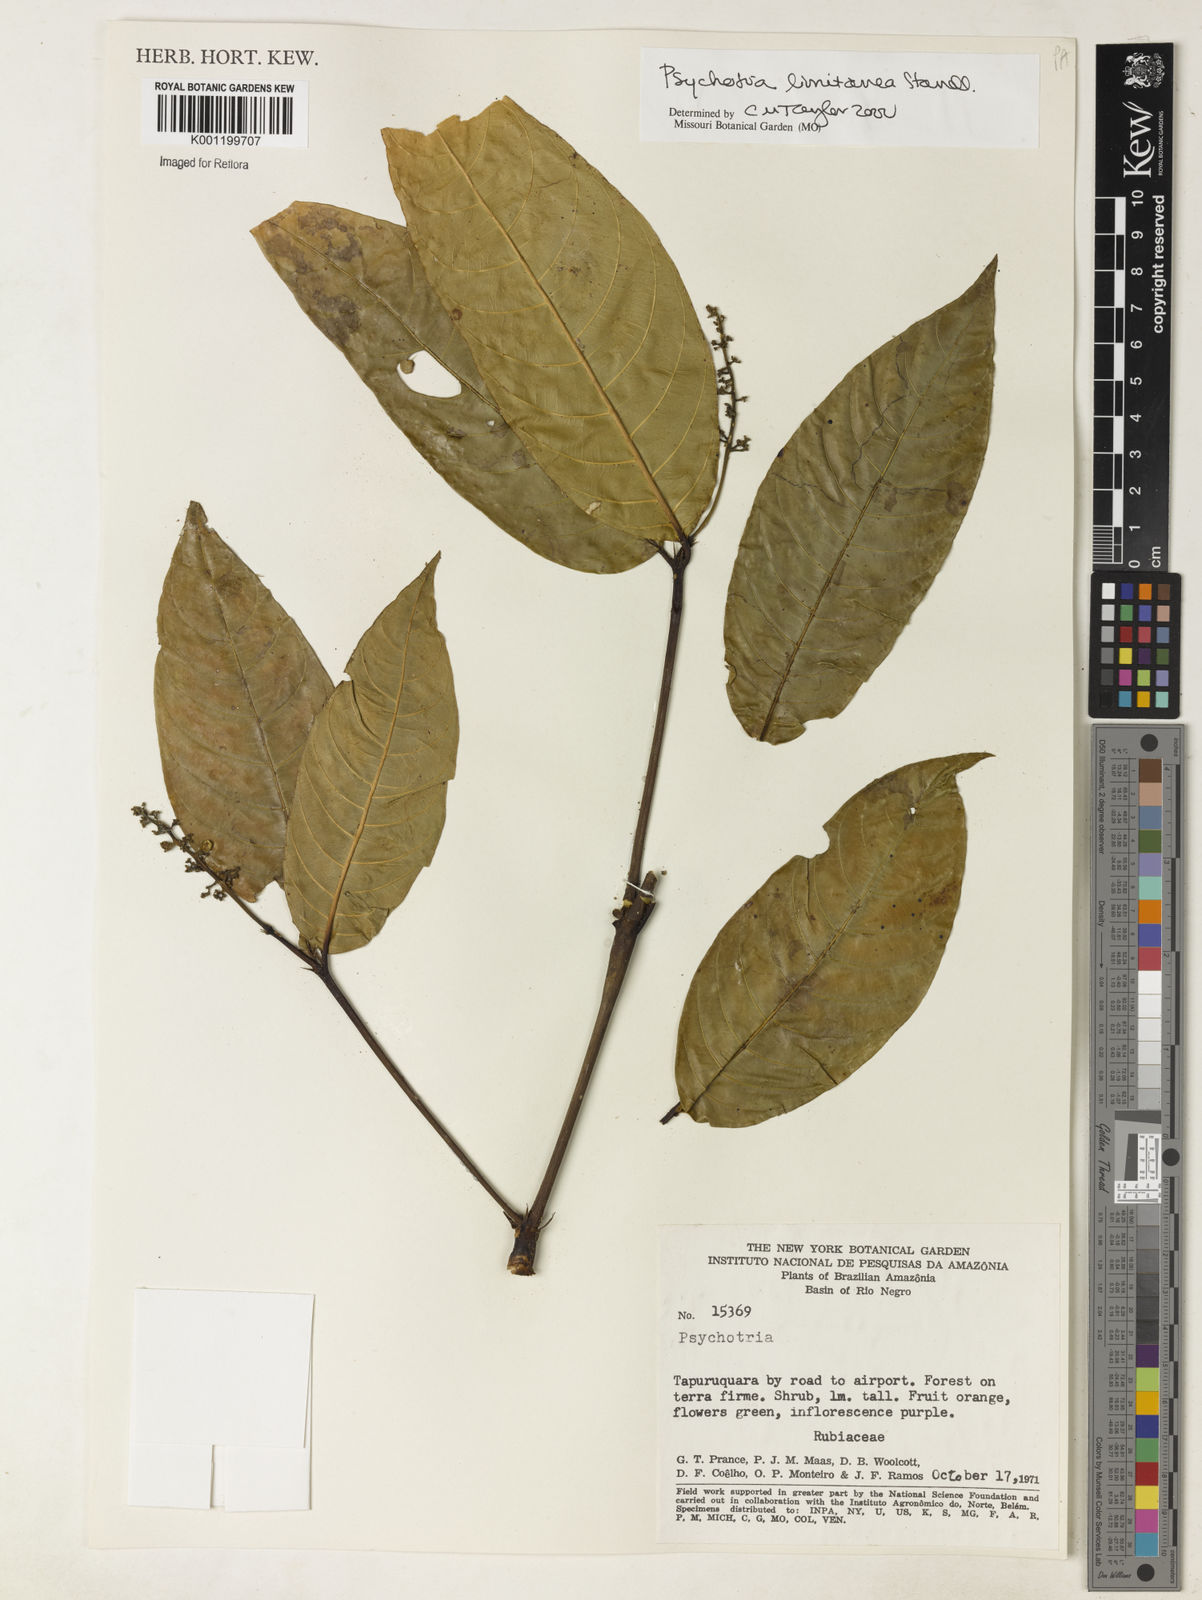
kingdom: Plantae
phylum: Tracheophyta
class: Magnoliopsida
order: Gentianales
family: Rubiaceae
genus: Psychotria
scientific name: Psychotria limitanea
